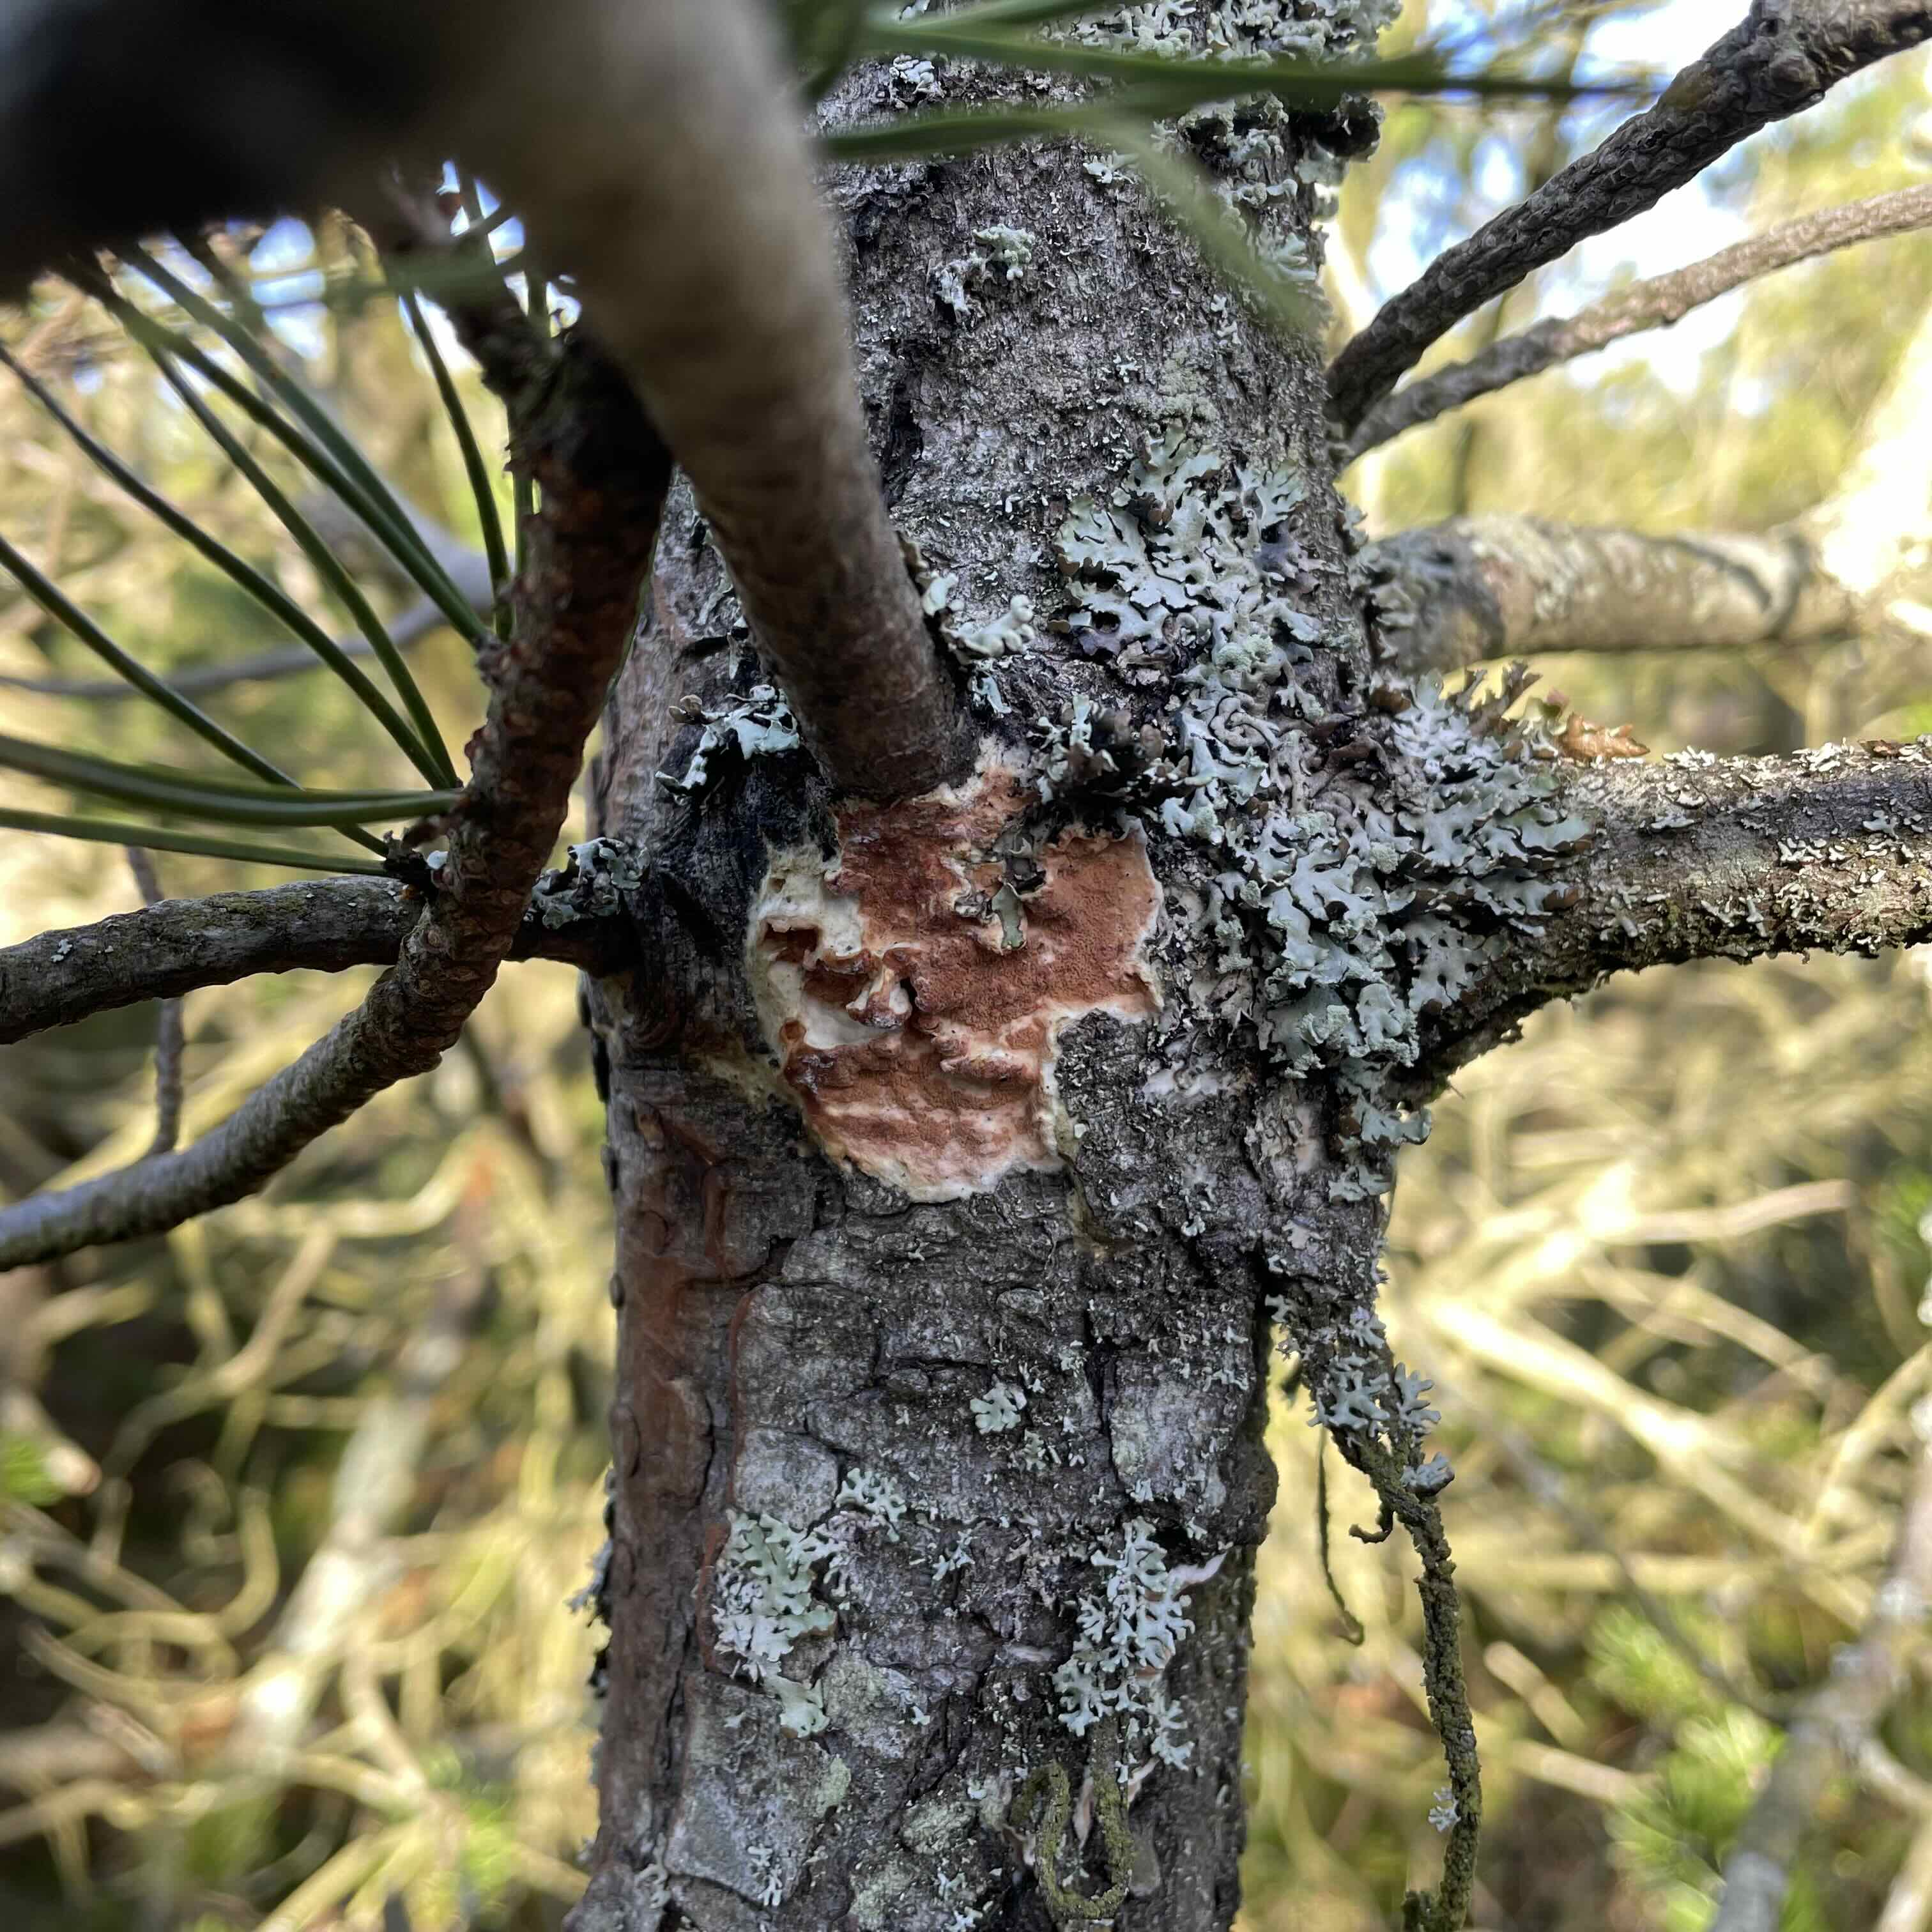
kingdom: Fungi
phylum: Basidiomycota
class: Agaricomycetes
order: Polyporales
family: Irpicaceae
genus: Meruliopsis
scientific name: Meruliopsis taxicola
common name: purpurbrun foldporesvamp
